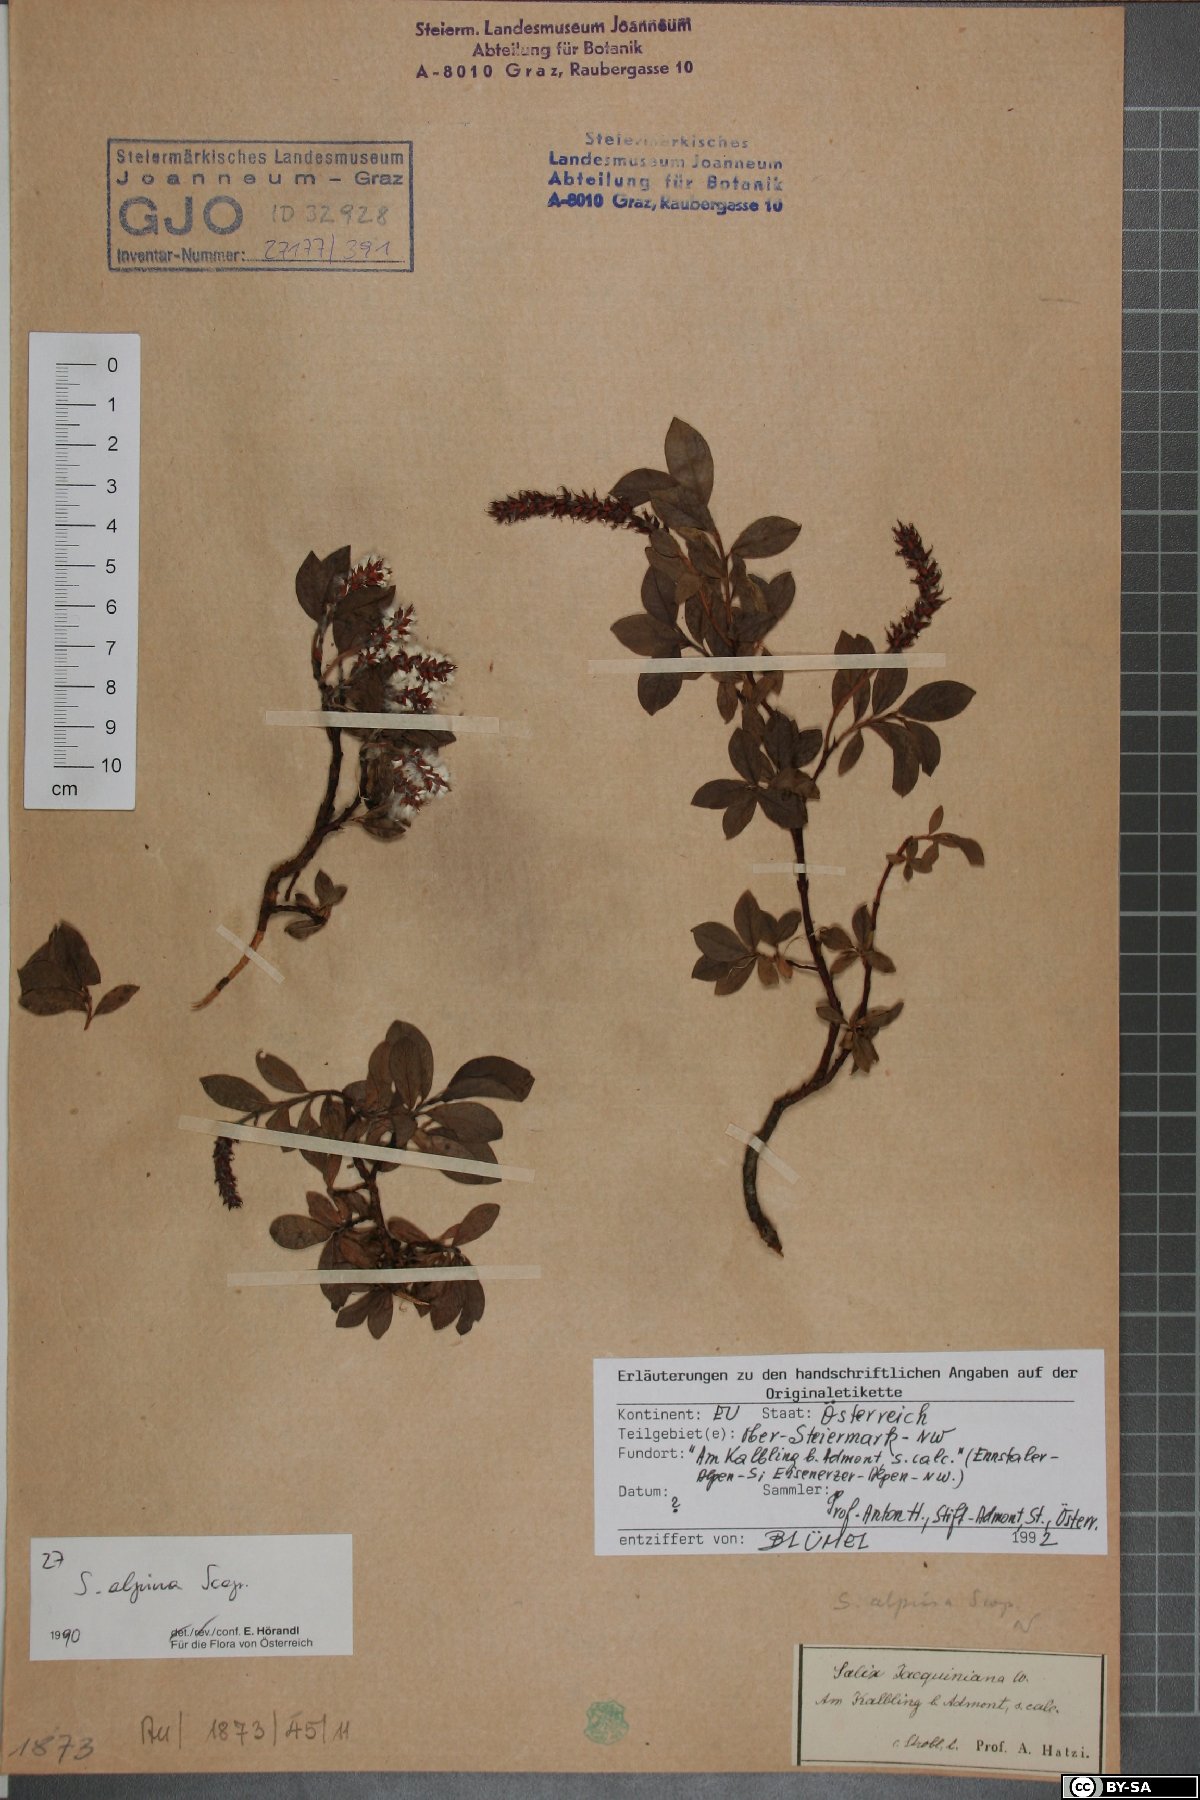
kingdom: Plantae
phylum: Tracheophyta
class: Magnoliopsida
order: Malpighiales
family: Salicaceae
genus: Salix
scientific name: Salix alpina
